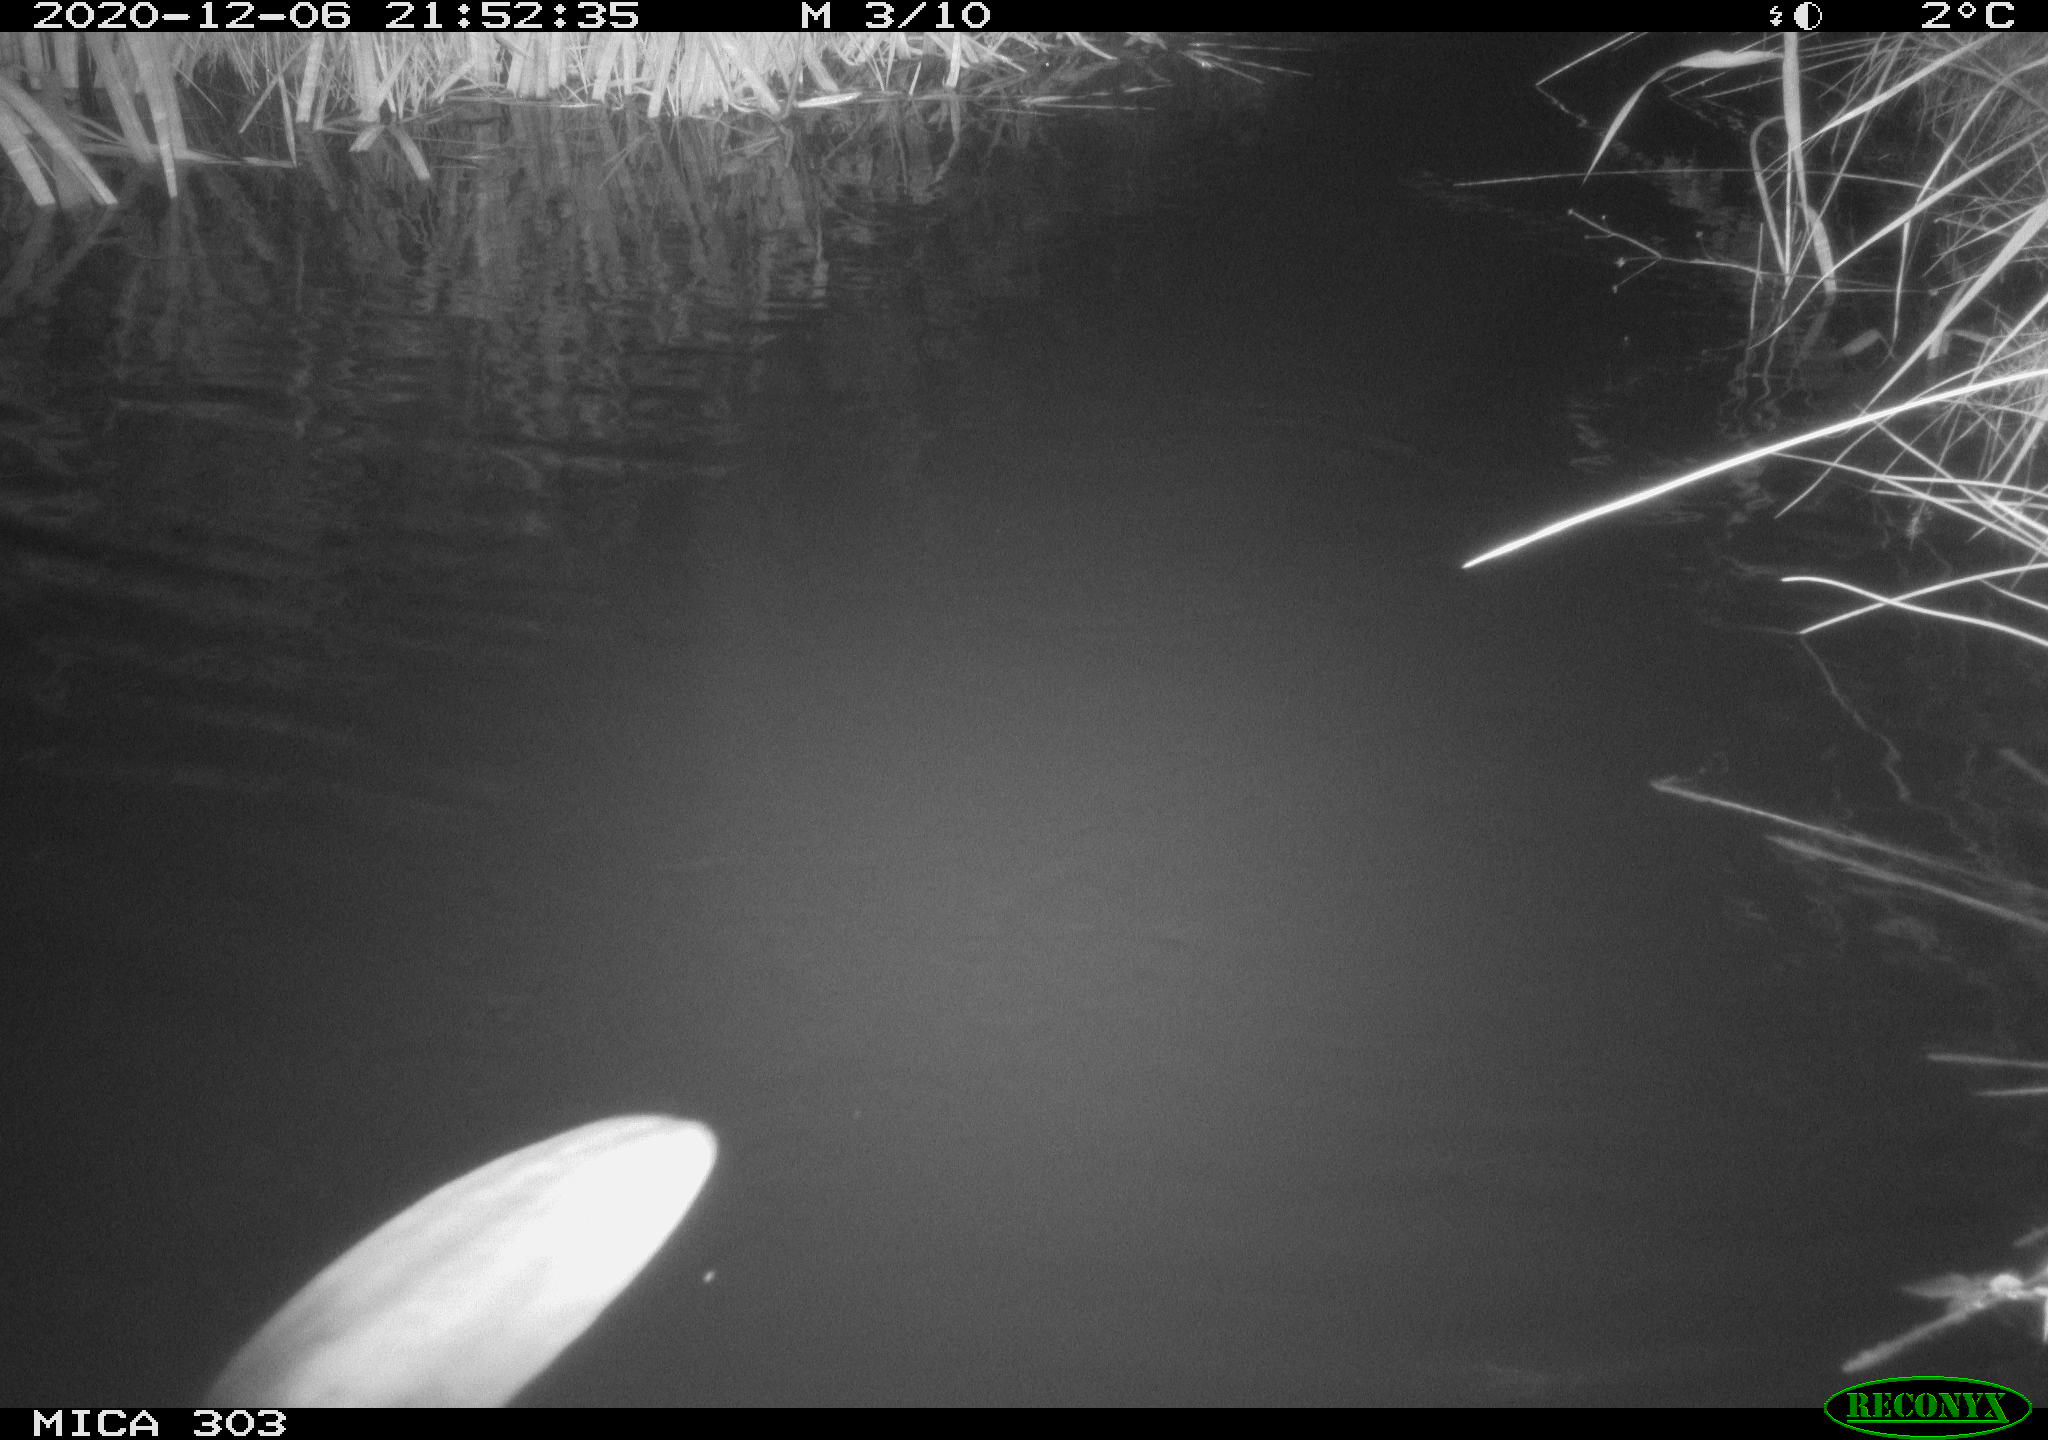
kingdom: Animalia
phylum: Chordata
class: Mammalia
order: Rodentia
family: Castoridae
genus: Castor
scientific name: Castor fiber
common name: Eurasian beaver
